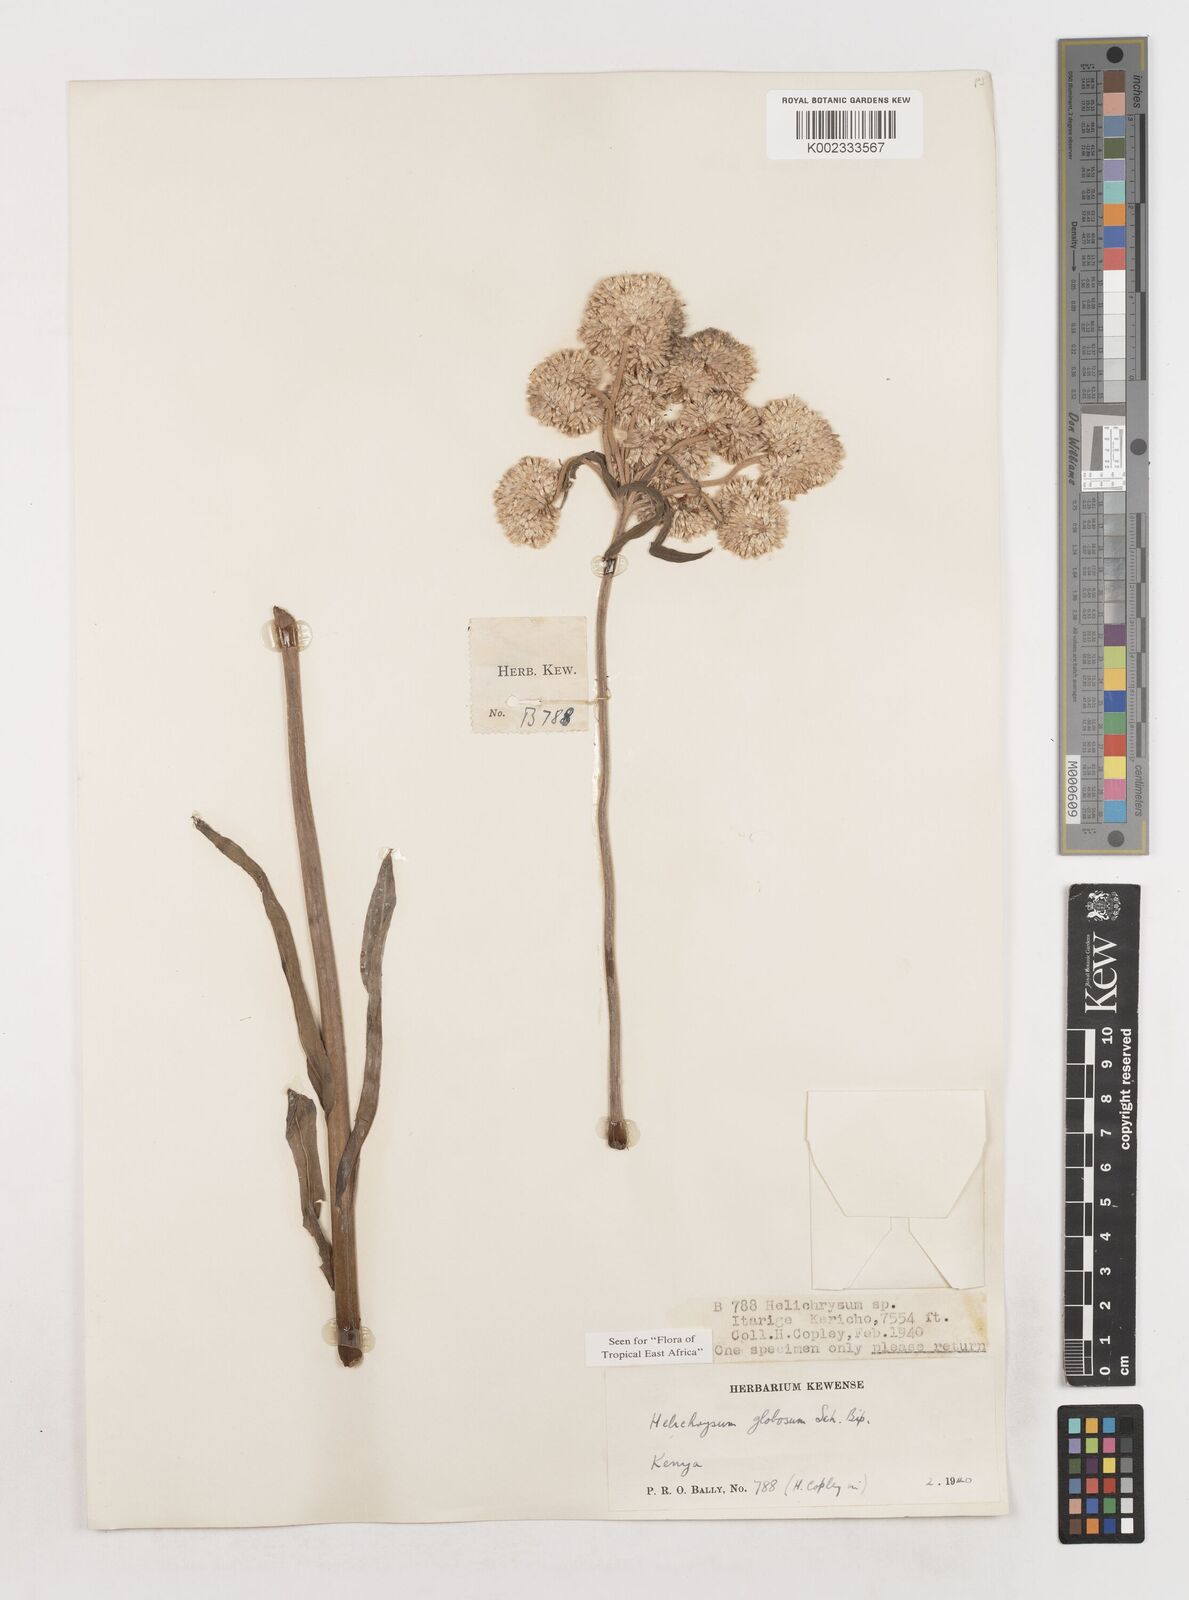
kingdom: Plantae
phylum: Tracheophyta
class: Magnoliopsida
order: Asterales
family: Asteraceae
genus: Helichrysum
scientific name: Helichrysum globosum
